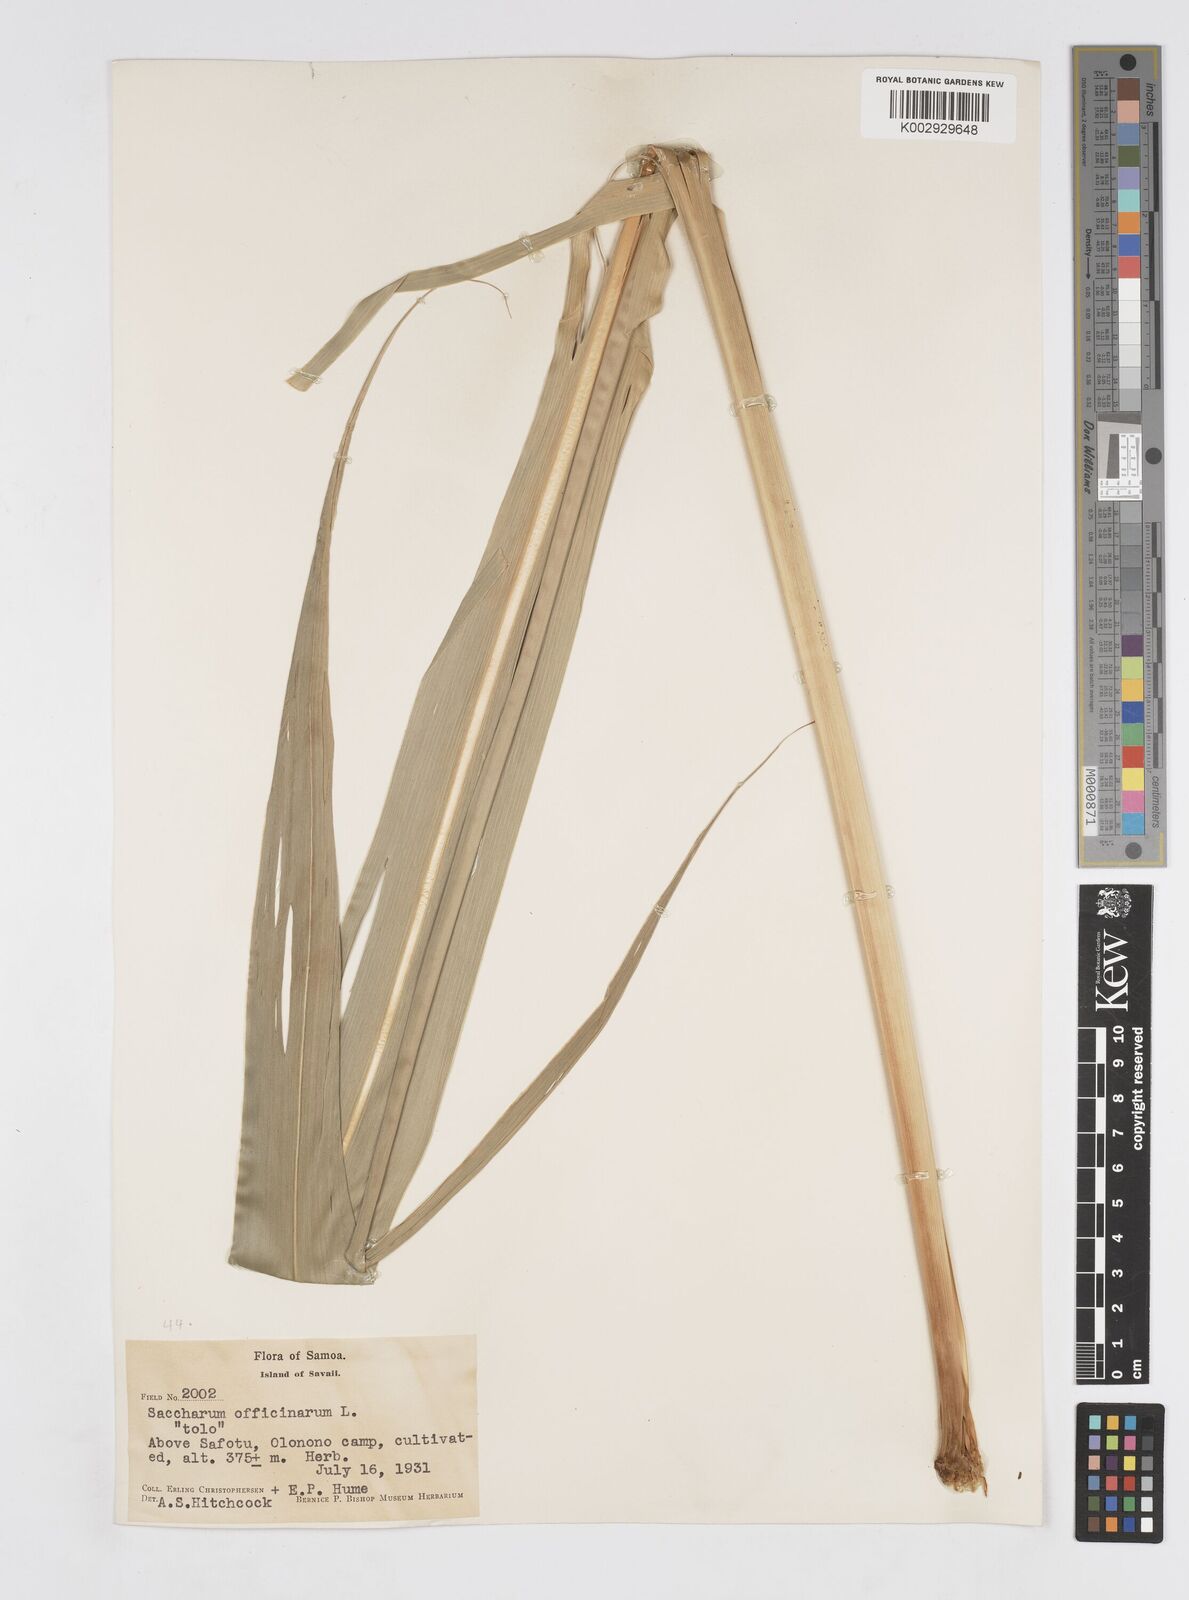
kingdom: Plantae
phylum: Tracheophyta
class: Liliopsida
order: Poales
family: Poaceae
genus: Saccharum
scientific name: Saccharum officinarum
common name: Sugarcane
